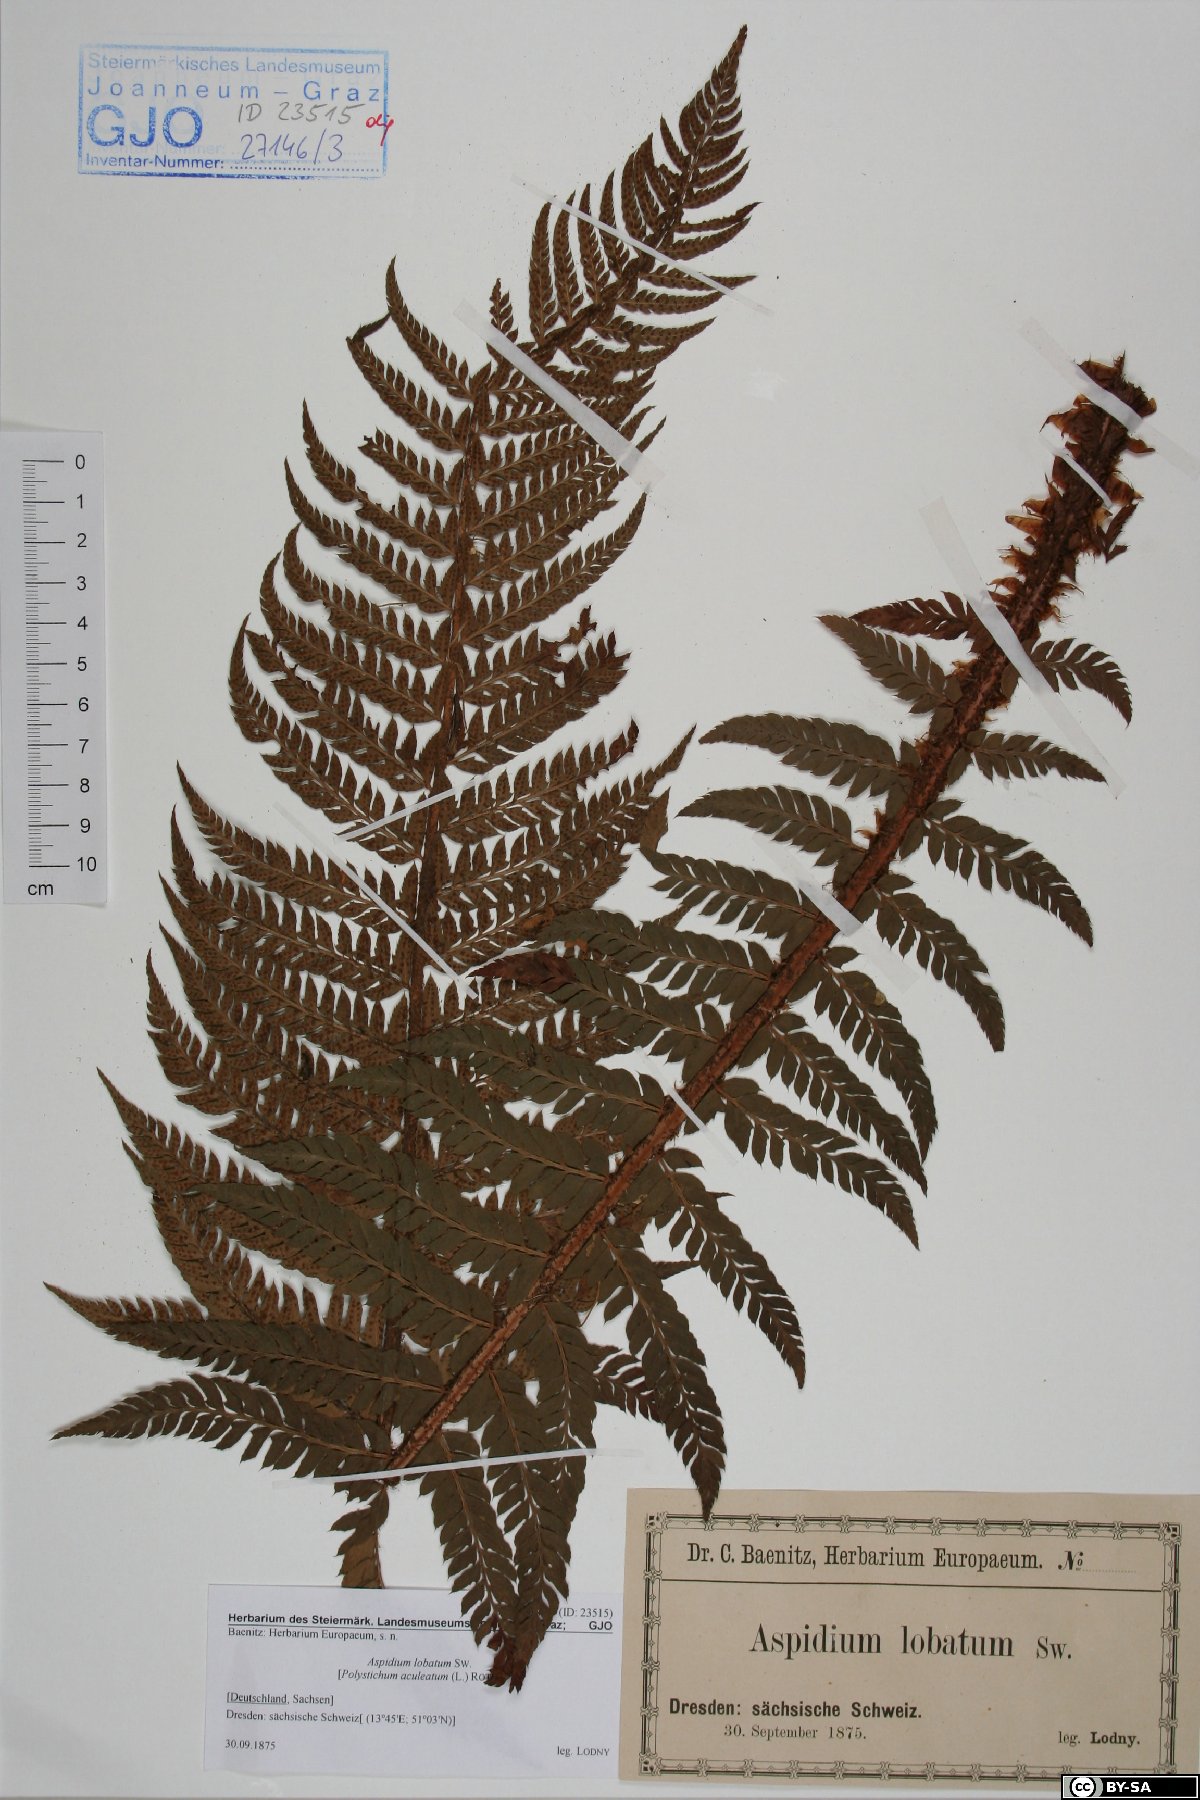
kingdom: Plantae
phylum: Tracheophyta
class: Polypodiopsida
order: Polypodiales
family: Dryopteridaceae
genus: Polystichum
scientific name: Polystichum aculeatum
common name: Hard shield-fern
